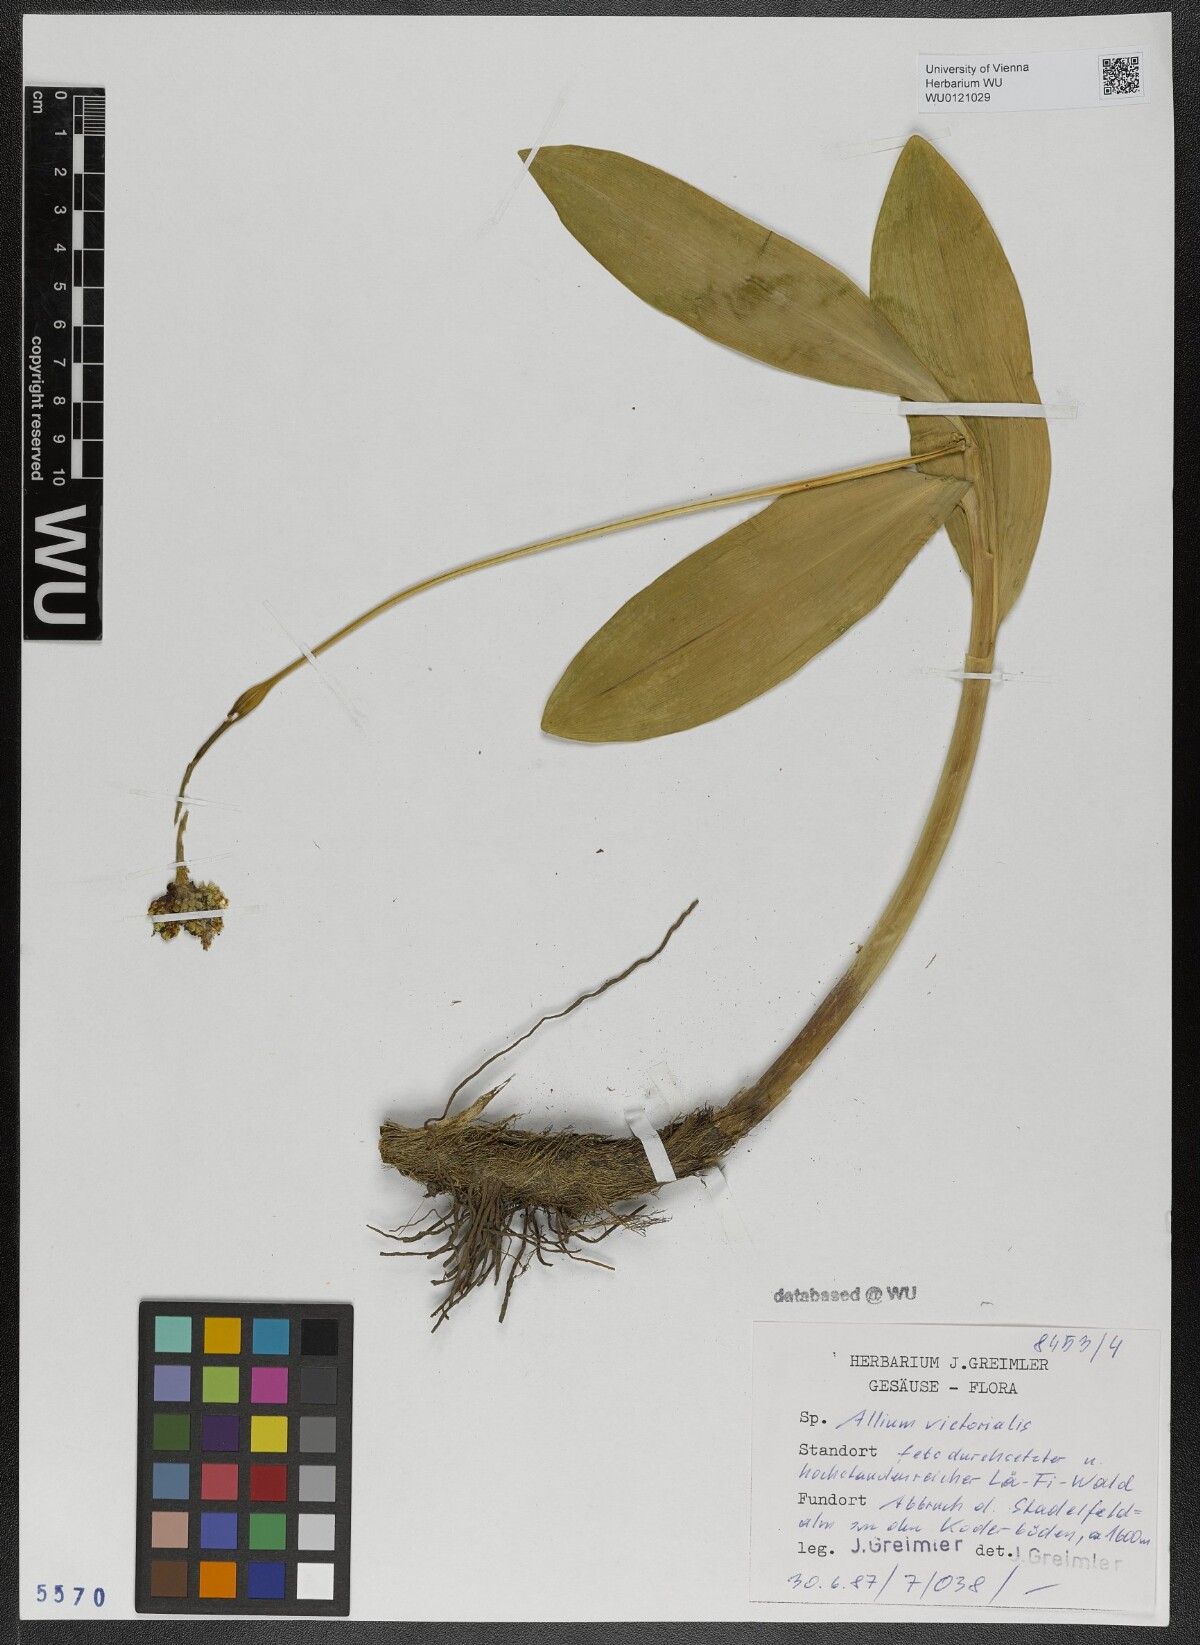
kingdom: Plantae
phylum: Tracheophyta
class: Liliopsida
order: Asparagales
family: Amaryllidaceae
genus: Allium
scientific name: Allium victorialis
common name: Alpine leek
